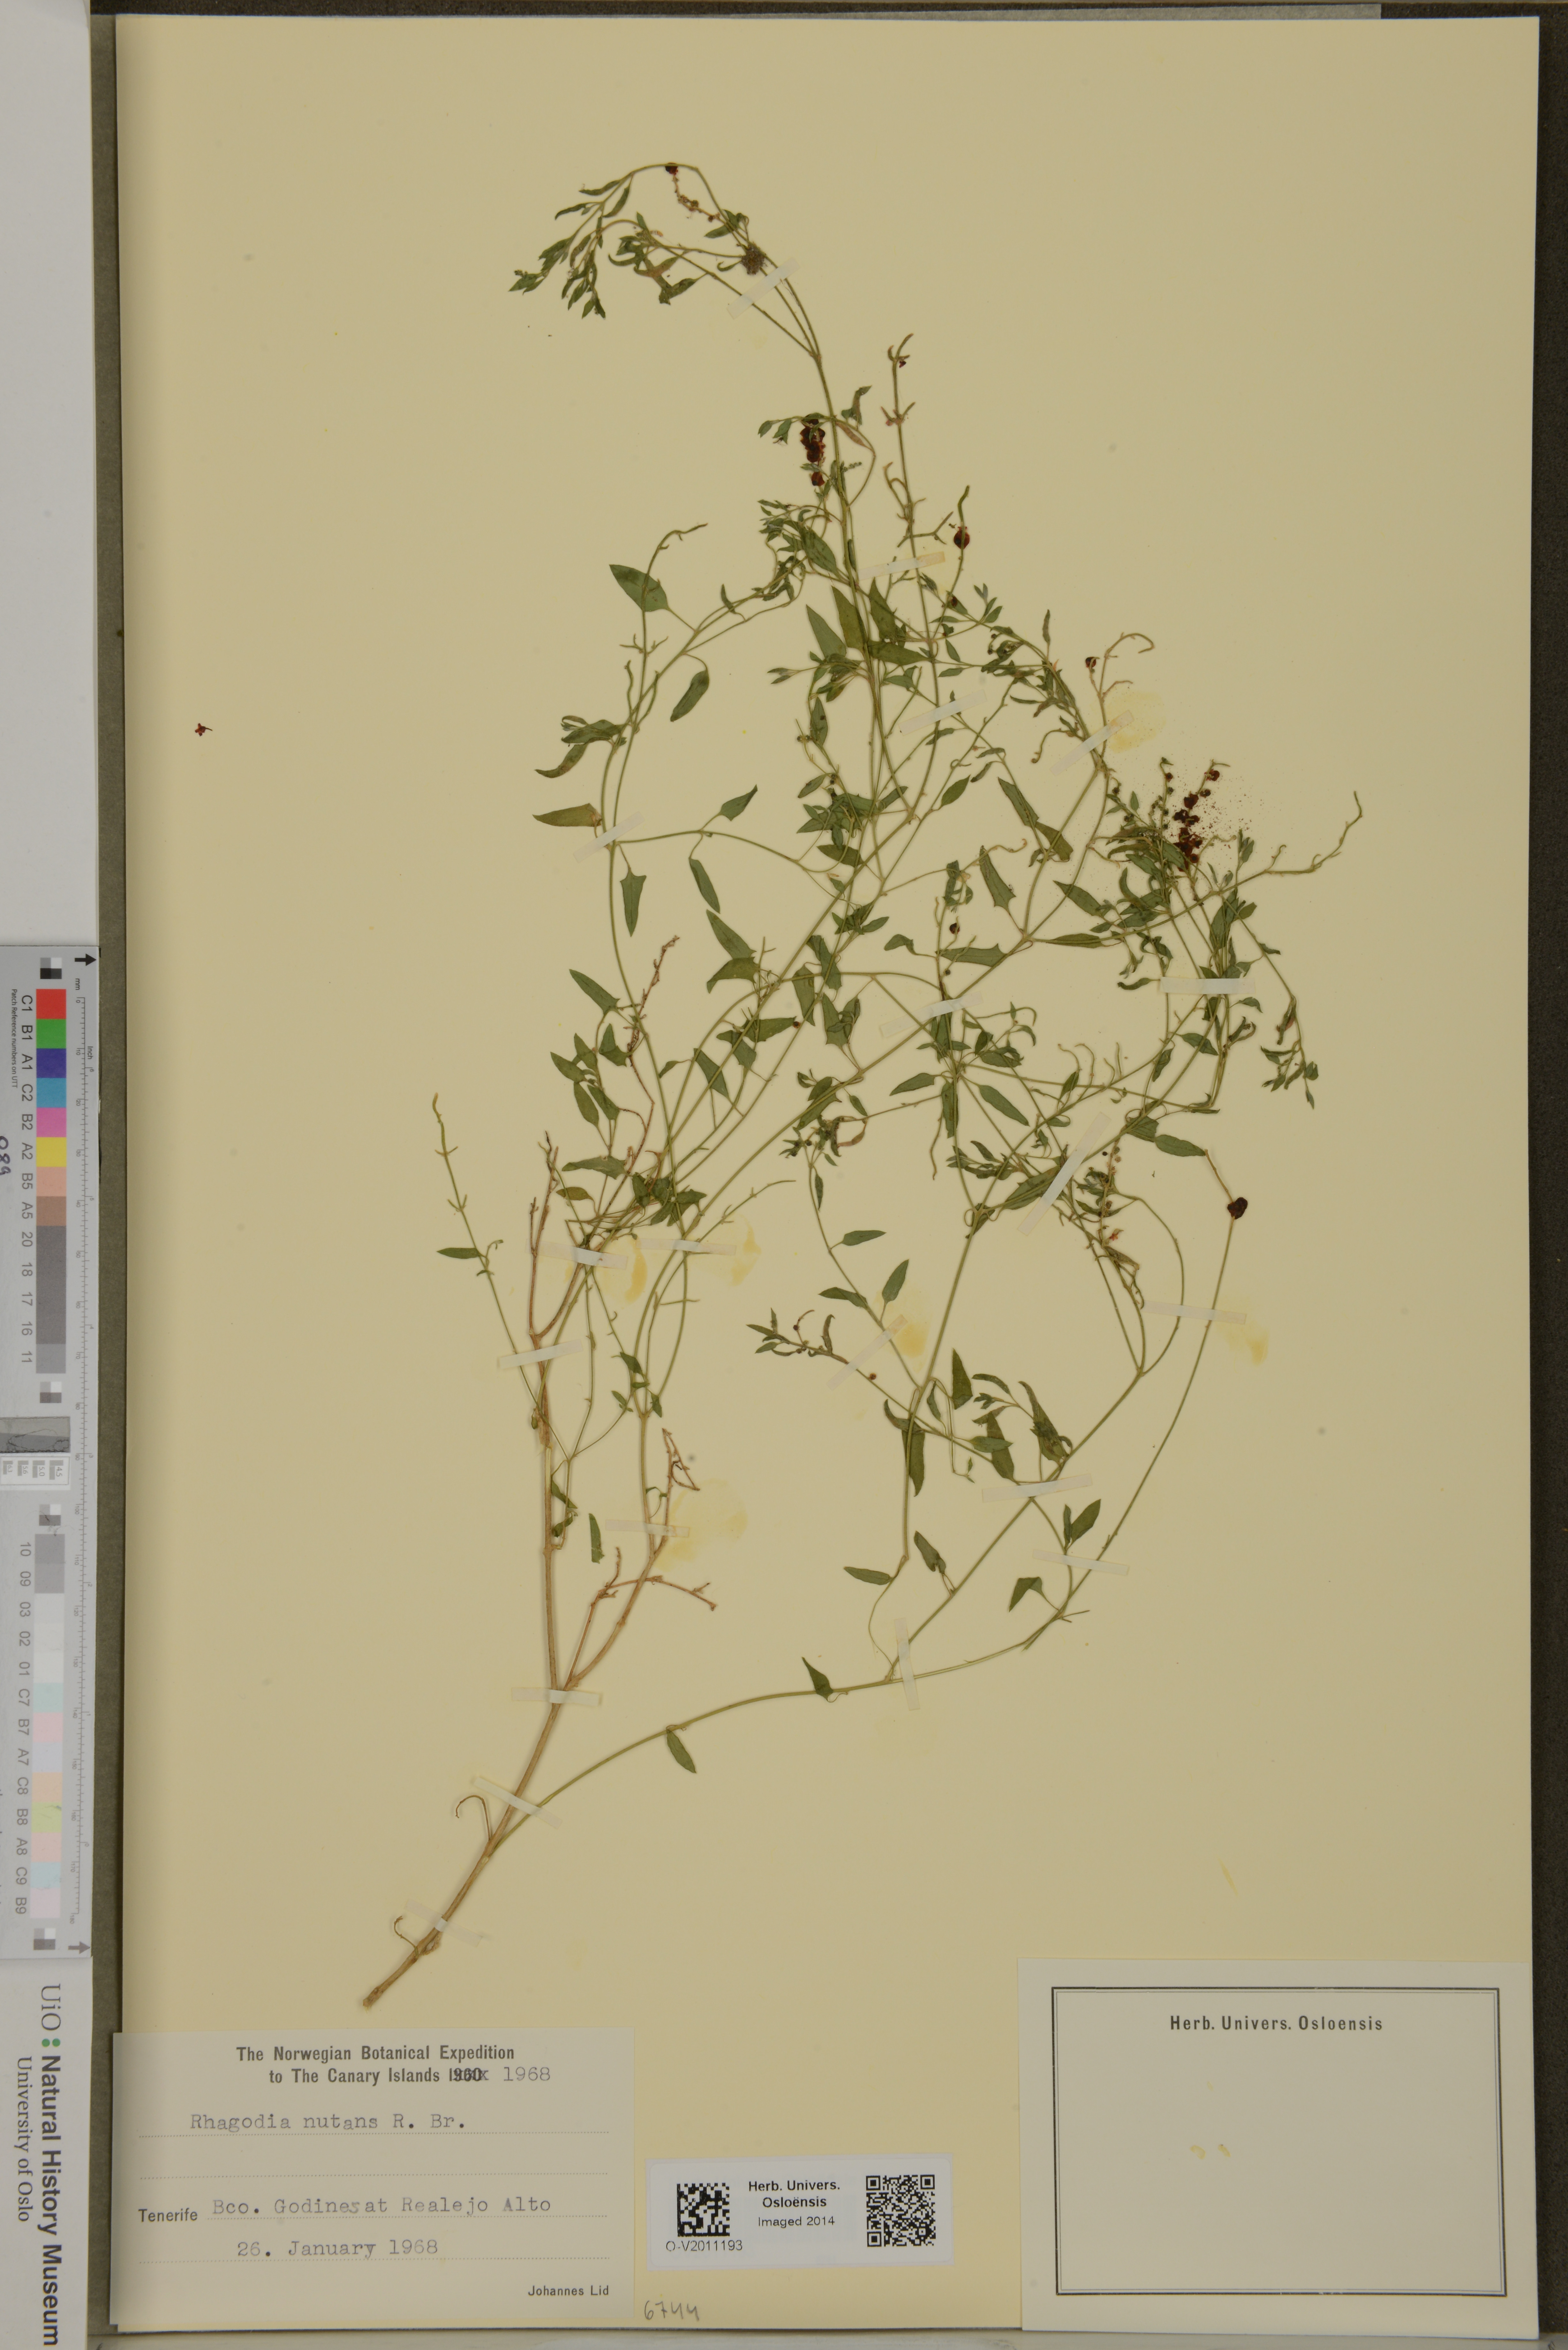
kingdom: Plantae
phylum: Tracheophyta
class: Magnoliopsida
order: Caryophyllales
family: Amaranthaceae
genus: Chenopodium
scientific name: Chenopodium nutans
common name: Climbing-saltbush
